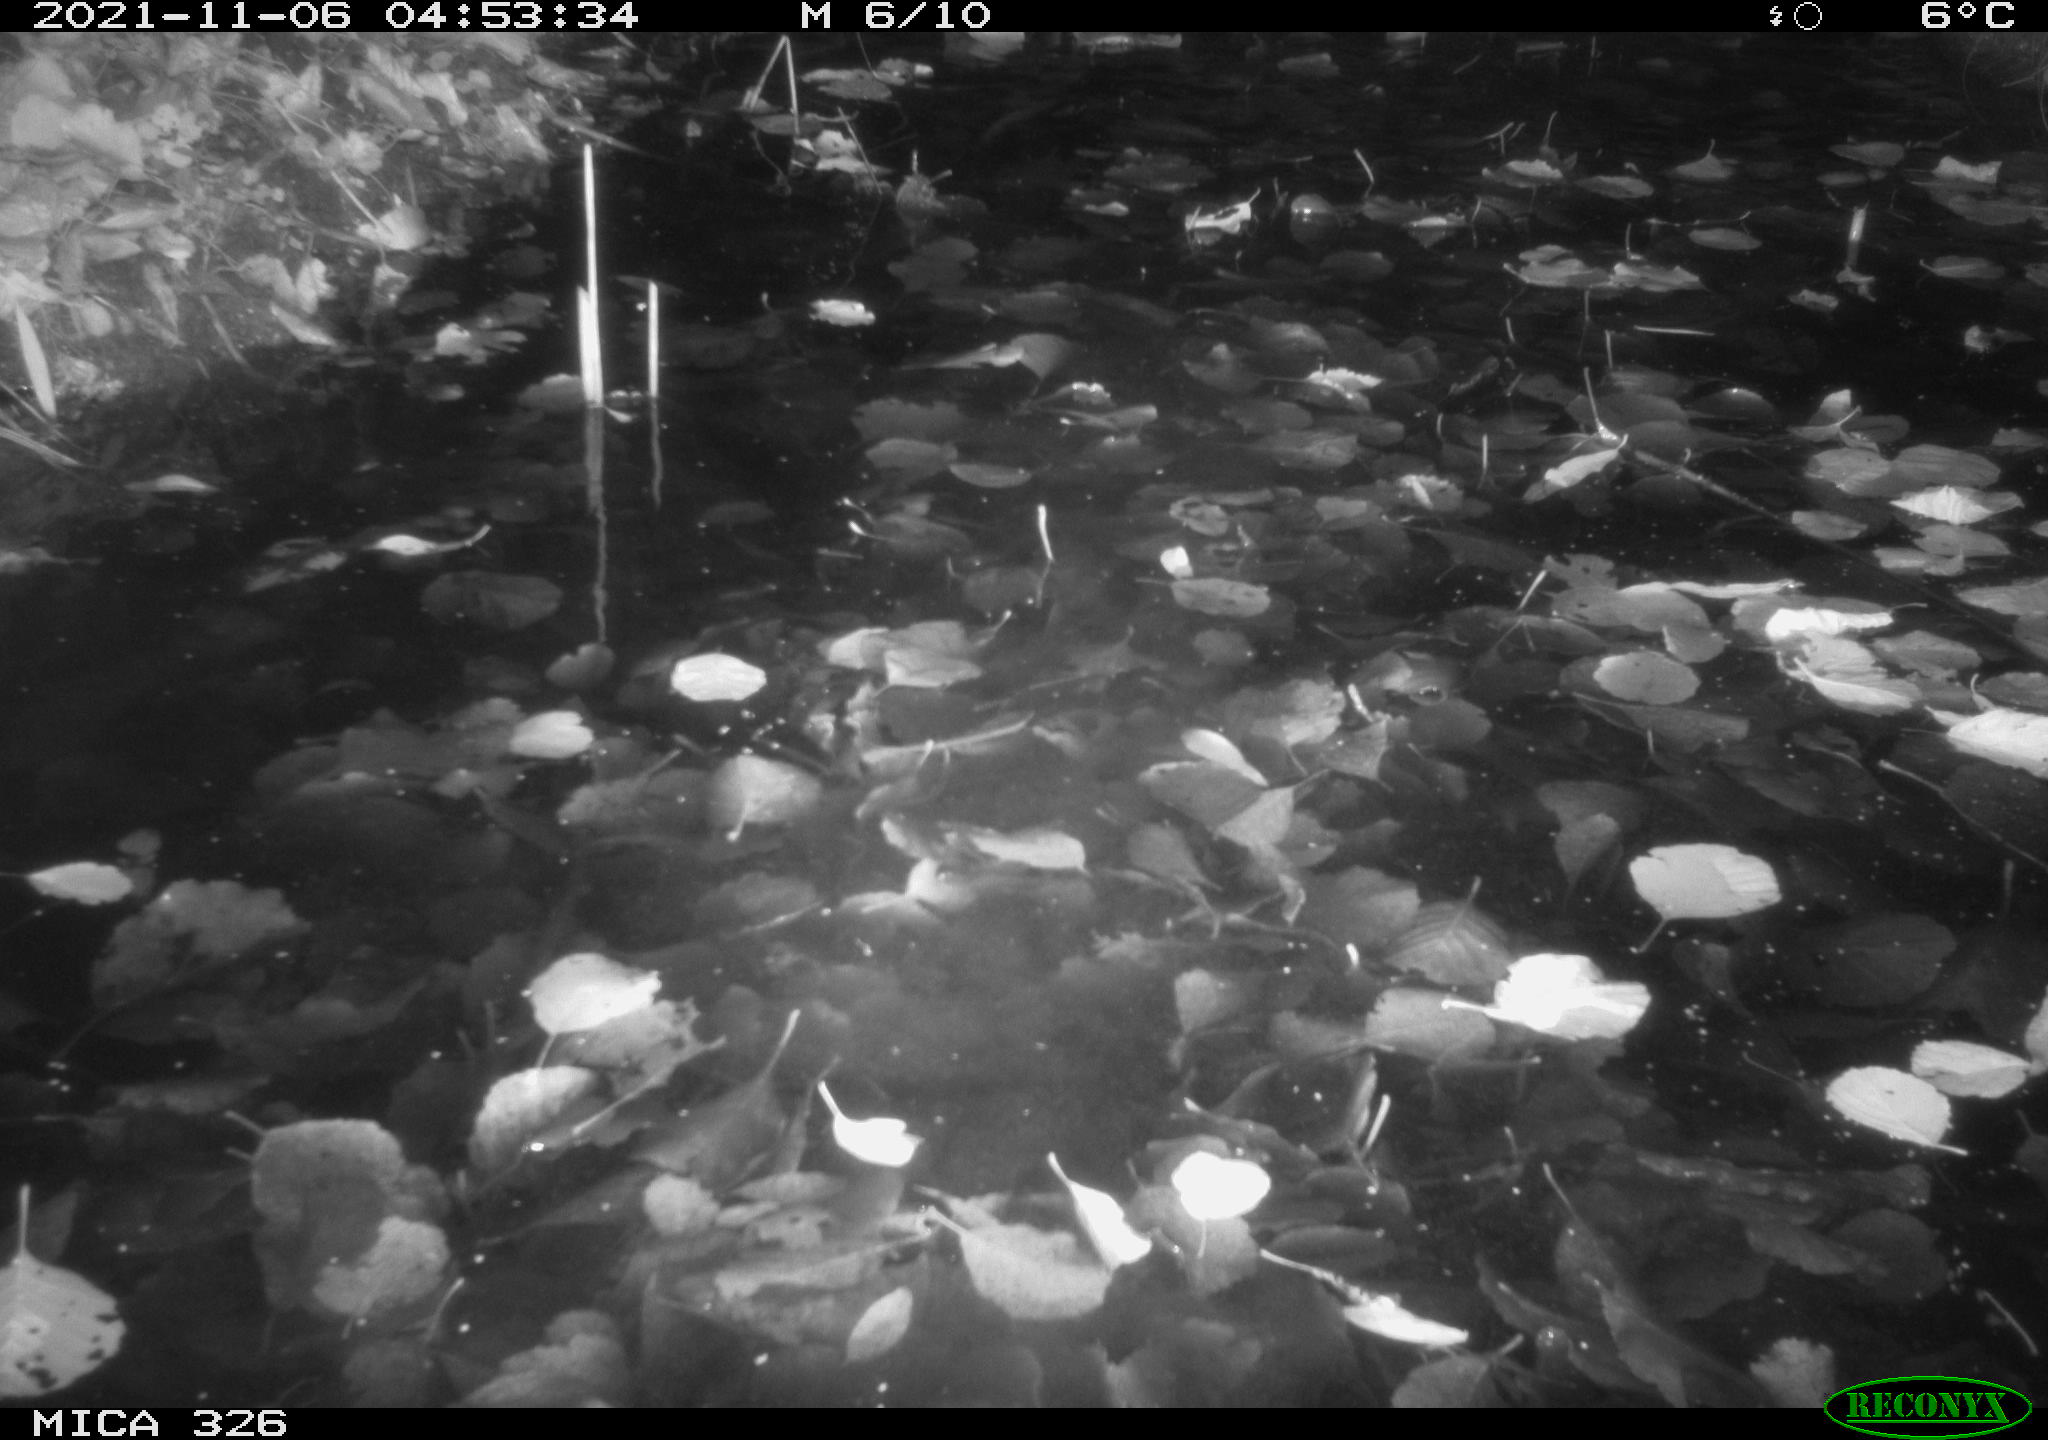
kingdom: Animalia
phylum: Chordata
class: Mammalia
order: Rodentia
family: Myocastoridae
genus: Myocastor
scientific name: Myocastor coypus
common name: Coypu
